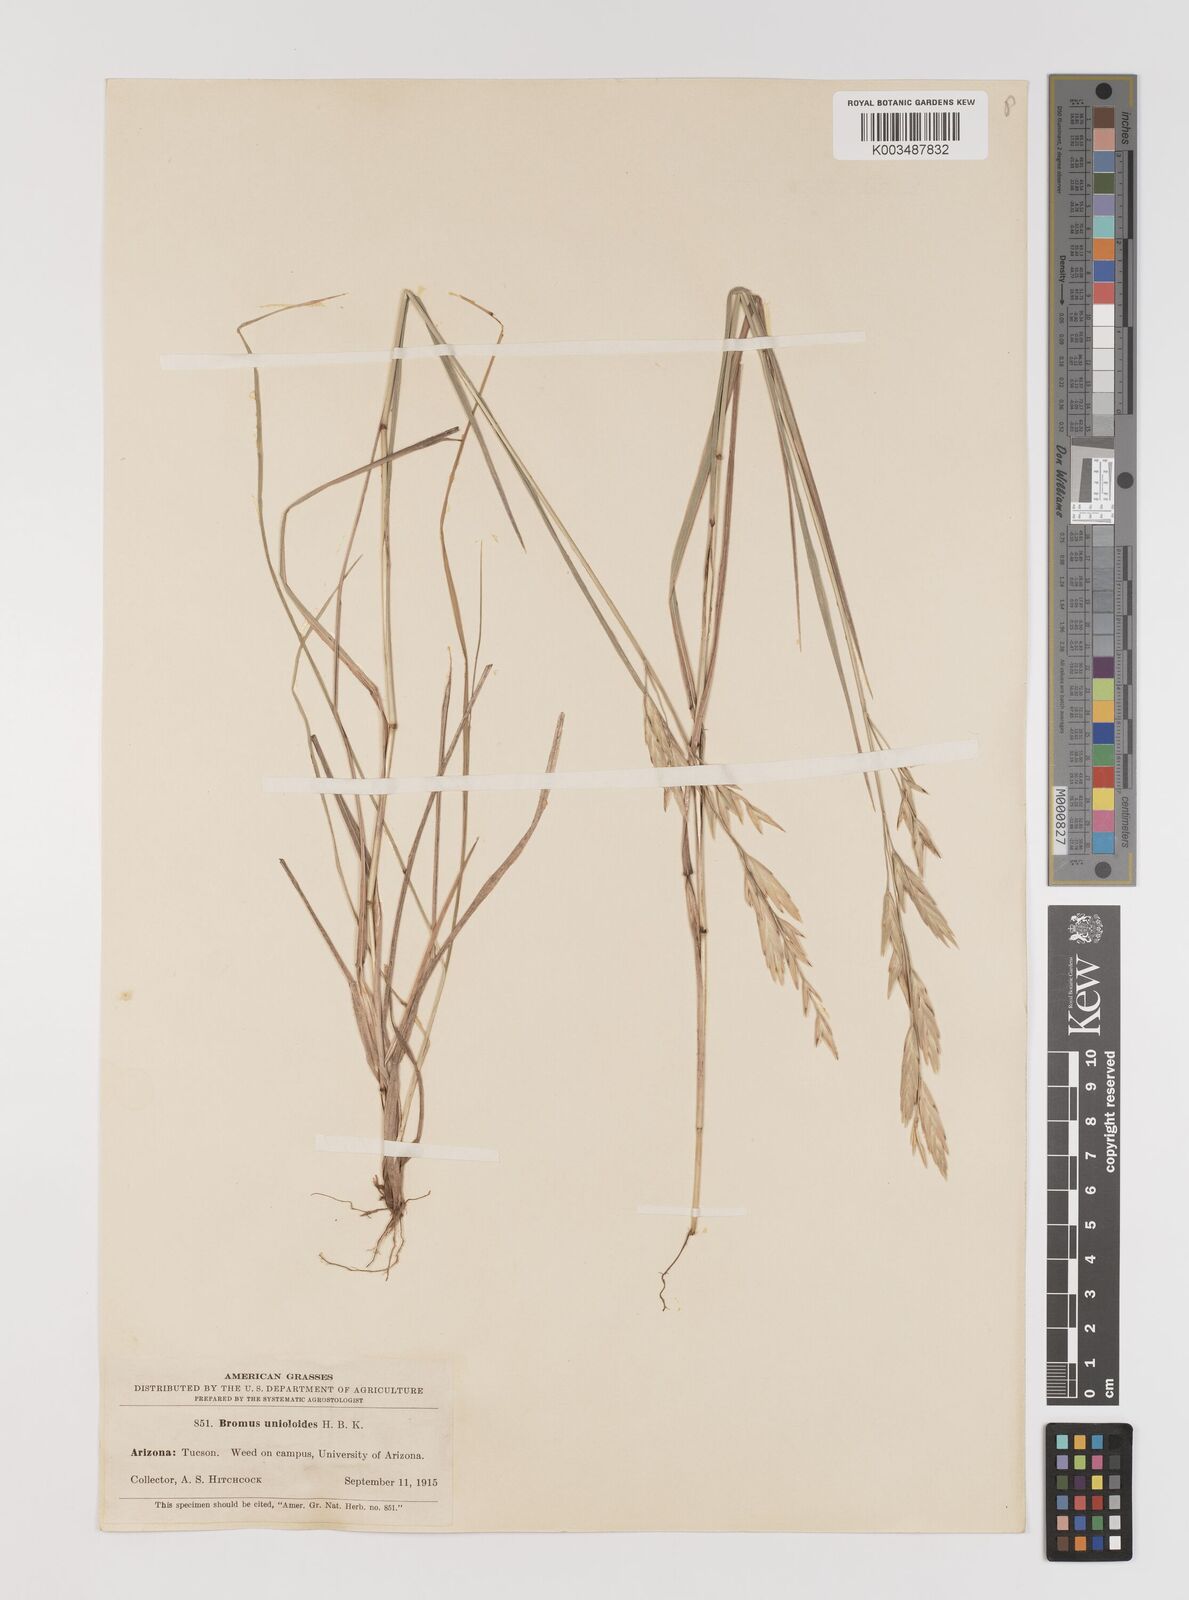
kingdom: Plantae
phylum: Tracheophyta
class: Liliopsida
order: Poales
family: Poaceae
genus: Bromus
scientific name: Bromus catharticus
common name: Rescuegrass
